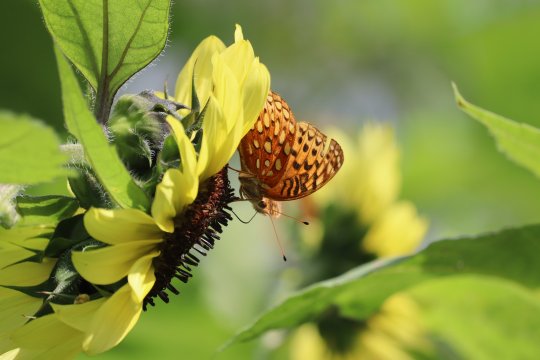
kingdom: Animalia
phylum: Arthropoda
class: Insecta
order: Lepidoptera
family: Nymphalidae
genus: Speyeria
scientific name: Speyeria aphrodite
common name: Aphrodite Fritillary
